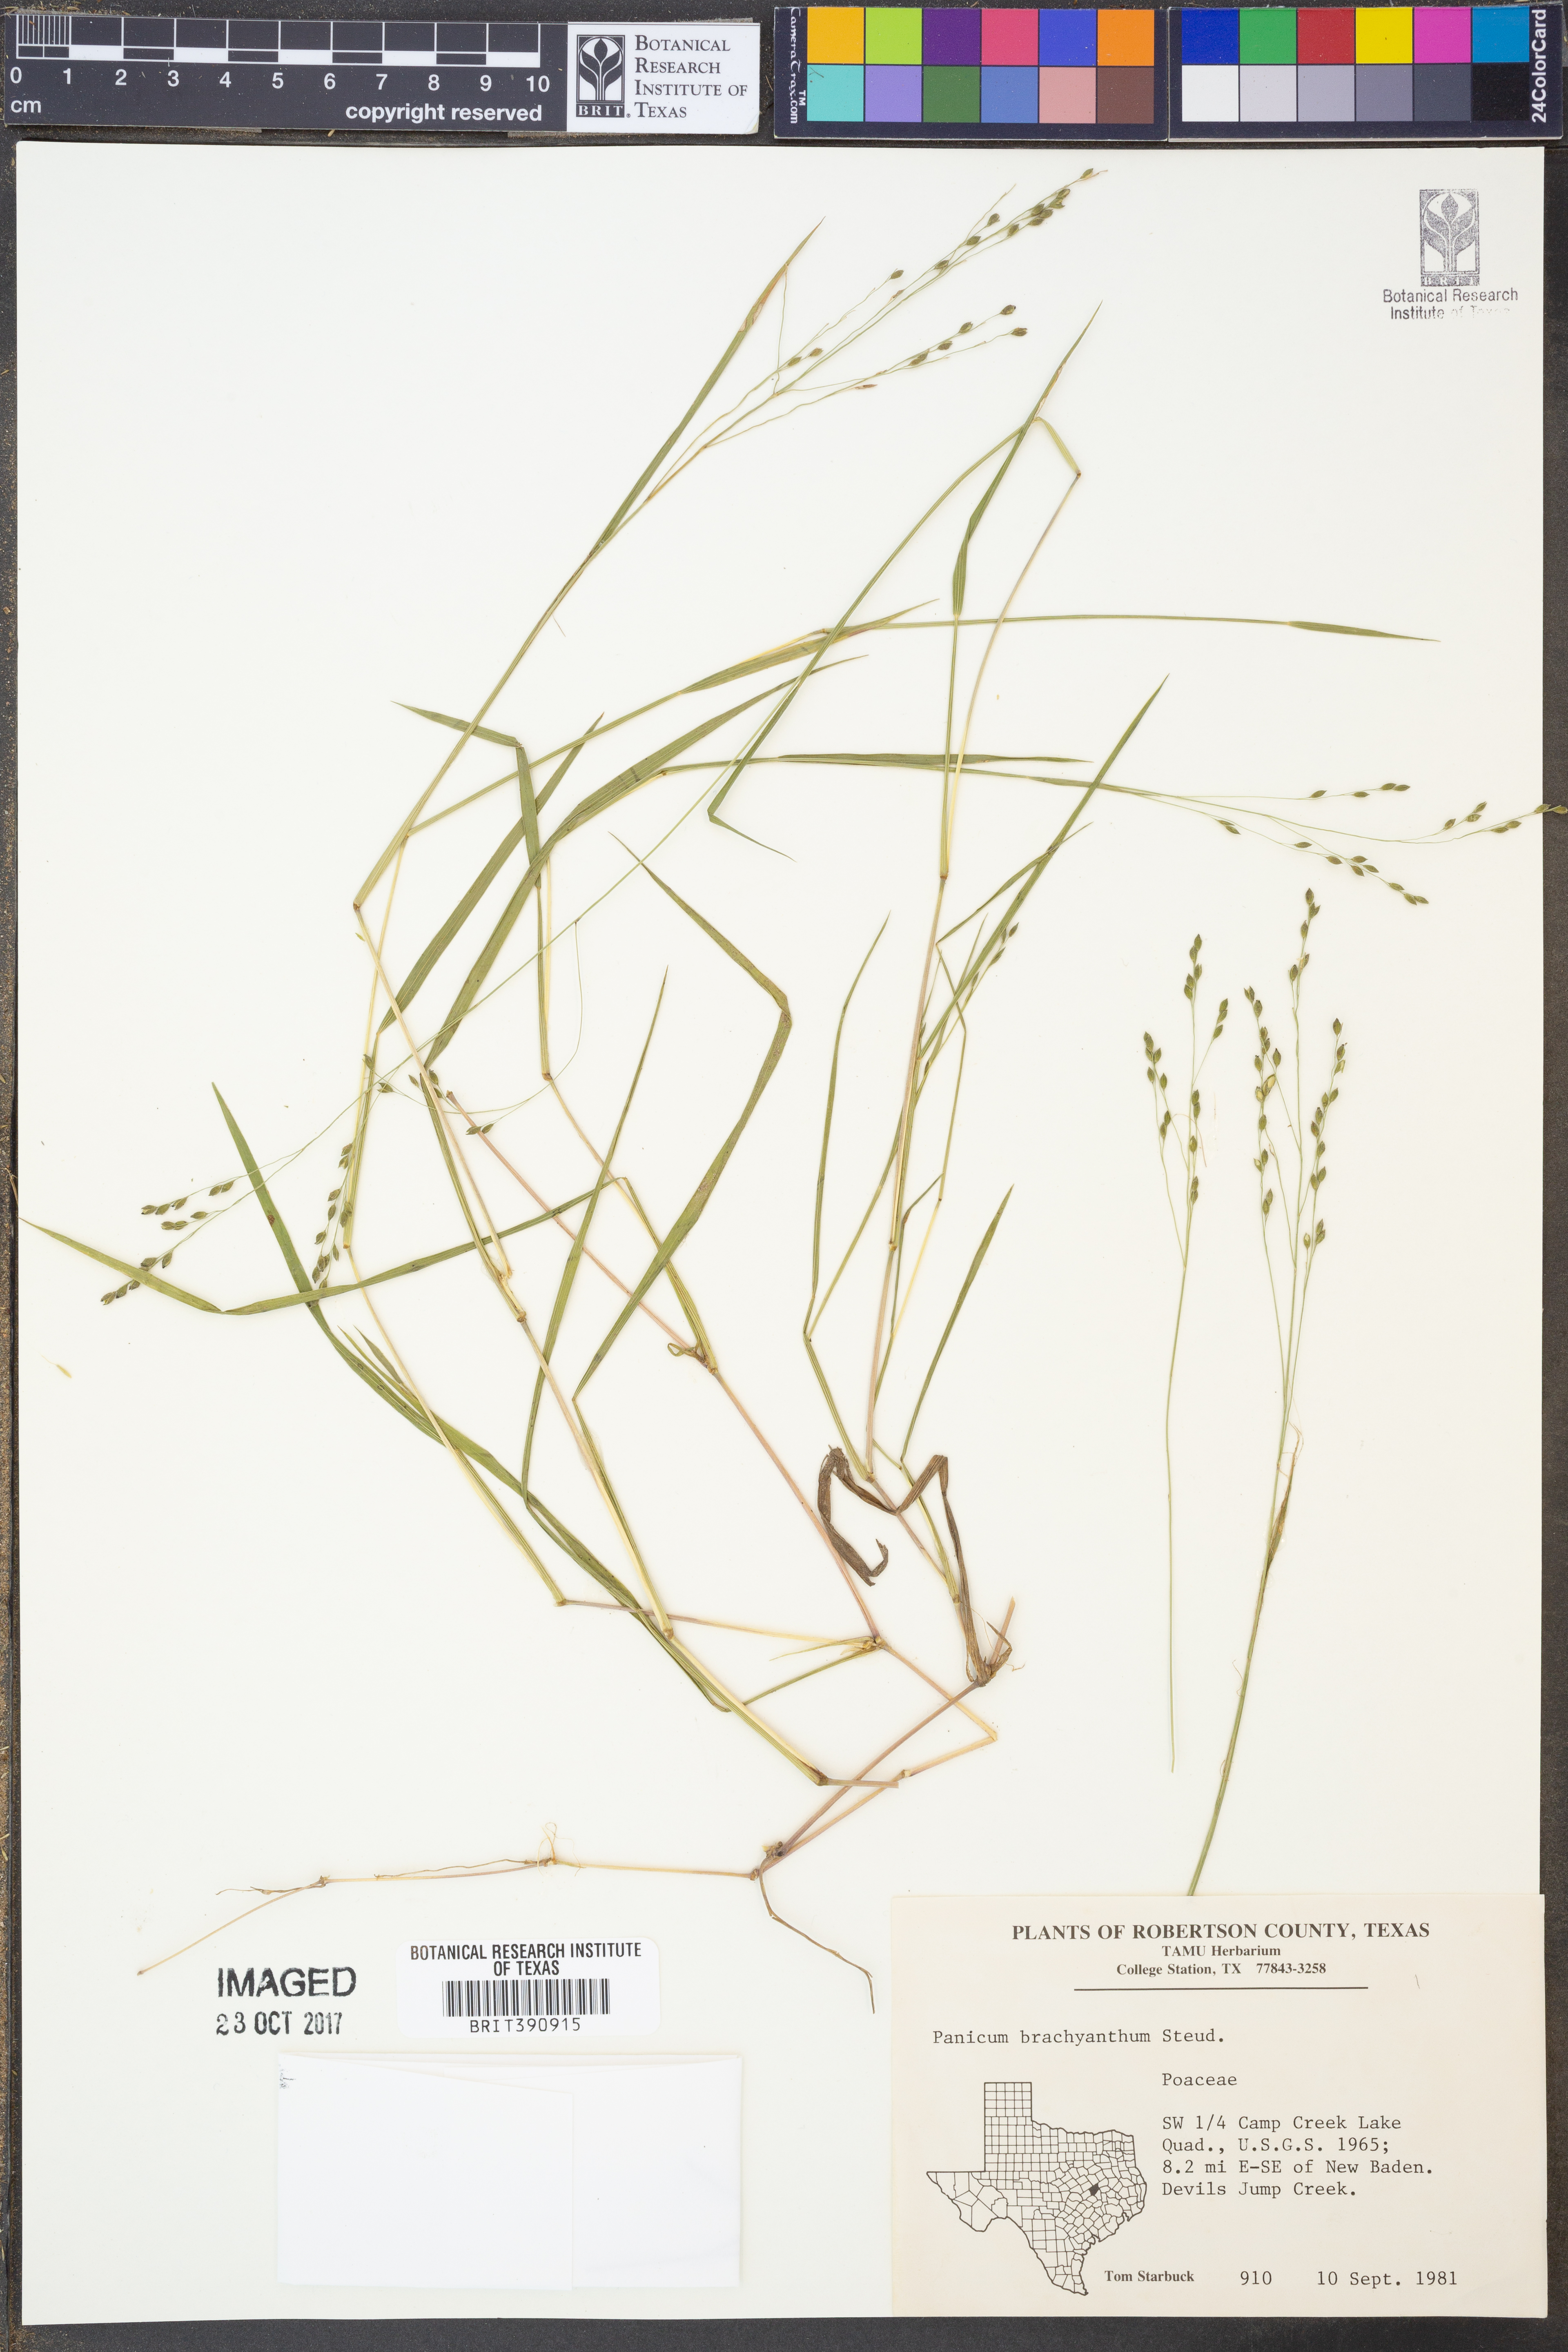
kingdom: Plantae
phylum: Tracheophyta
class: Liliopsida
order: Poales
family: Poaceae
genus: Kellochloa
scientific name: Kellochloa brachyantha
